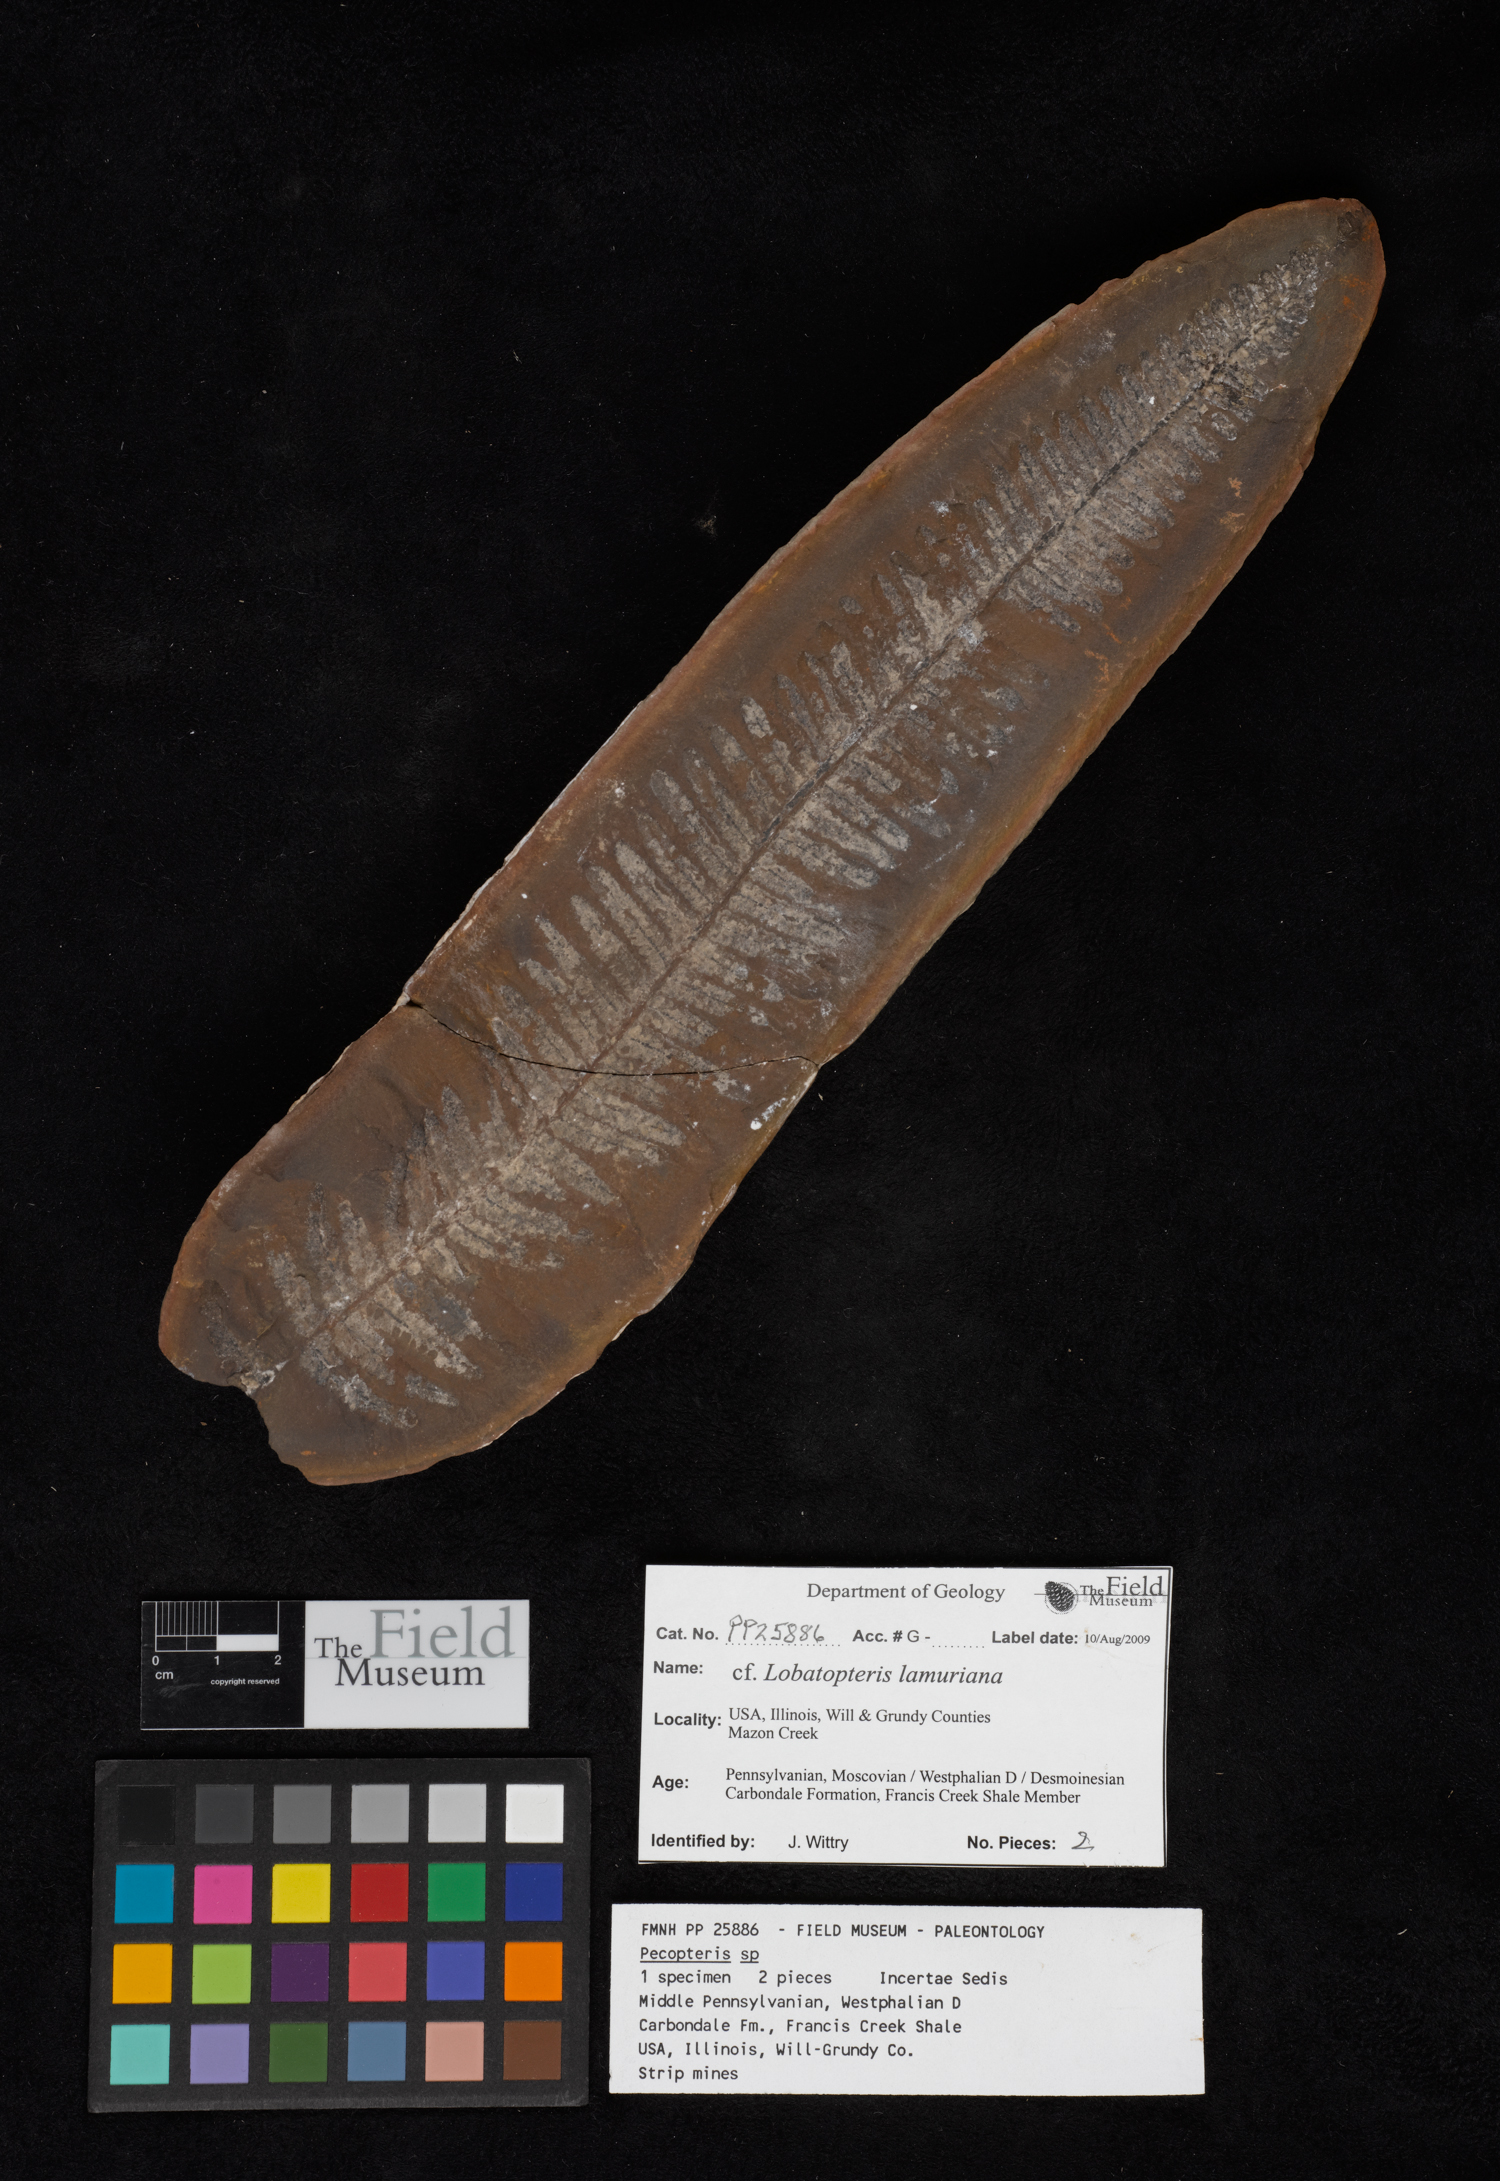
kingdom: Plantae
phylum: Tracheophyta
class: Polypodiopsida
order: Marattiales
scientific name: Marattiales
